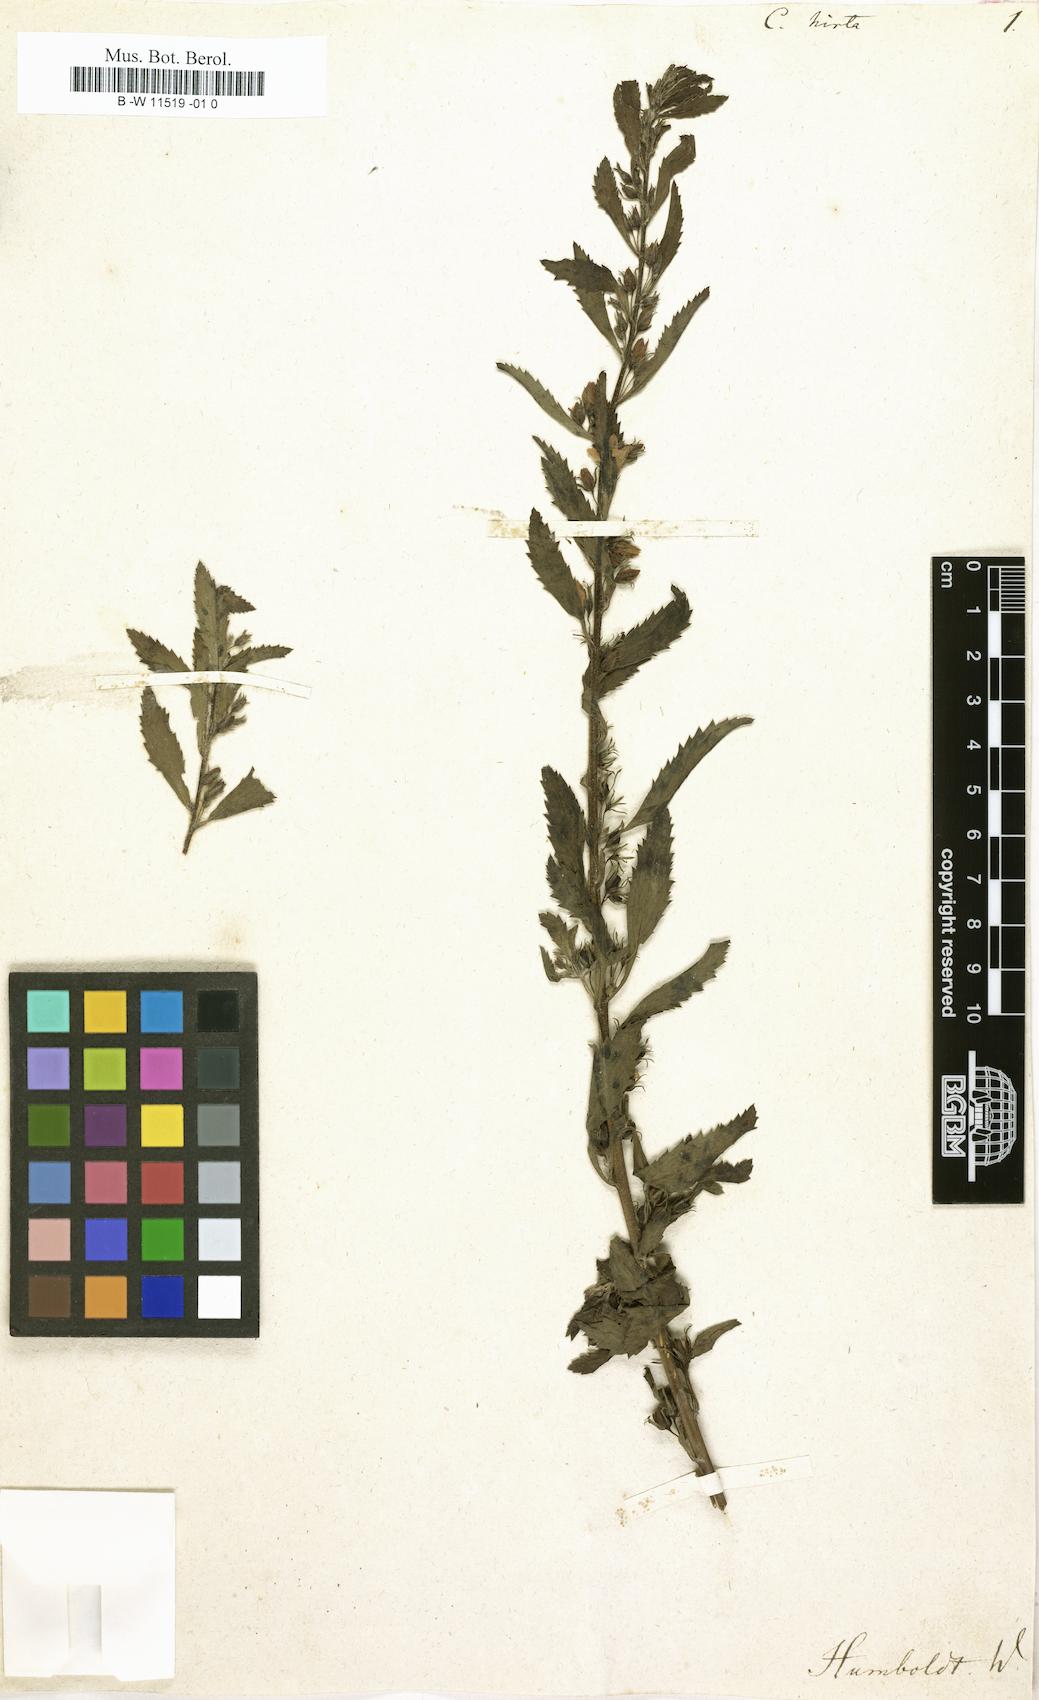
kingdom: Plantae
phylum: Tracheophyta
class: Magnoliopsida
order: Lamiales
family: Scrophulariaceae
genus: Capraria
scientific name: Capraria biflora
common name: Goatweed
